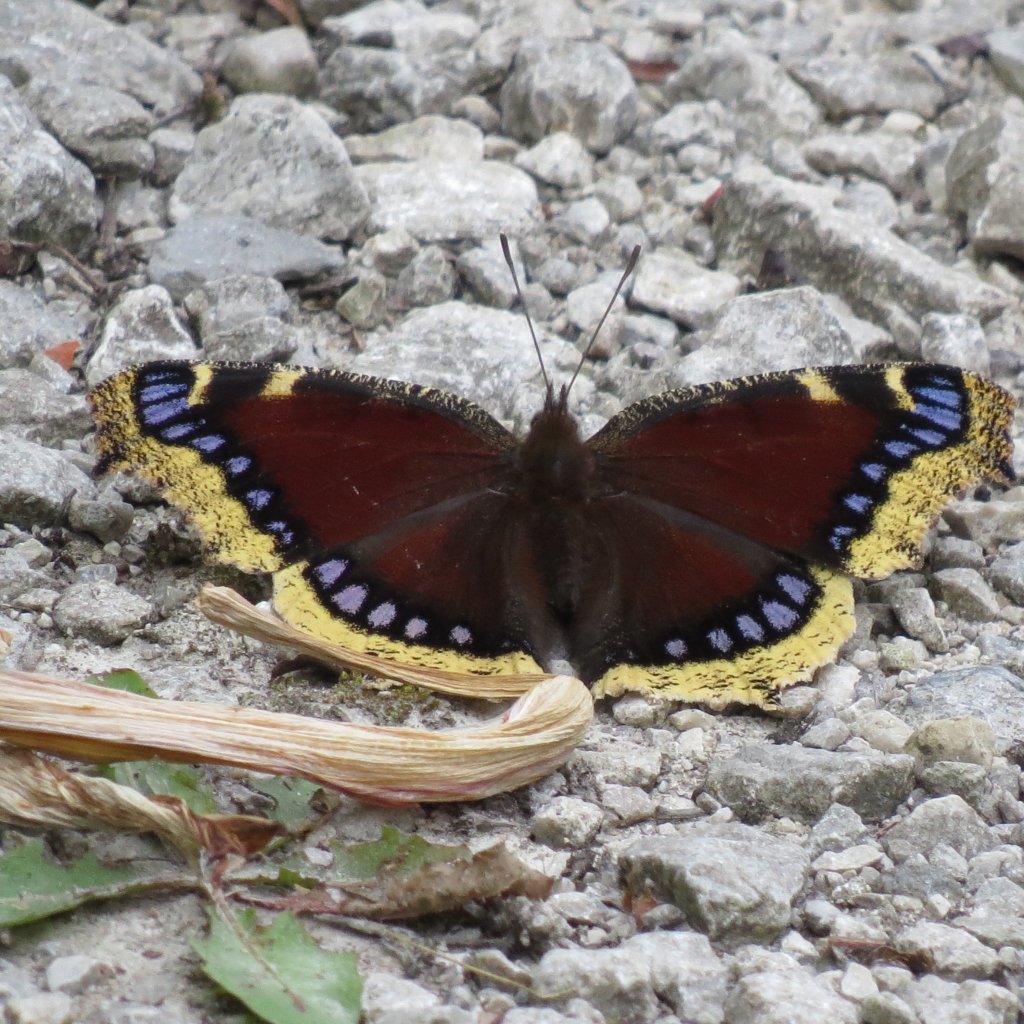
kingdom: Animalia
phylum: Arthropoda
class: Insecta
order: Lepidoptera
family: Nymphalidae
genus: Nymphalis
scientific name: Nymphalis antiopa
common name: Mourning Cloak
